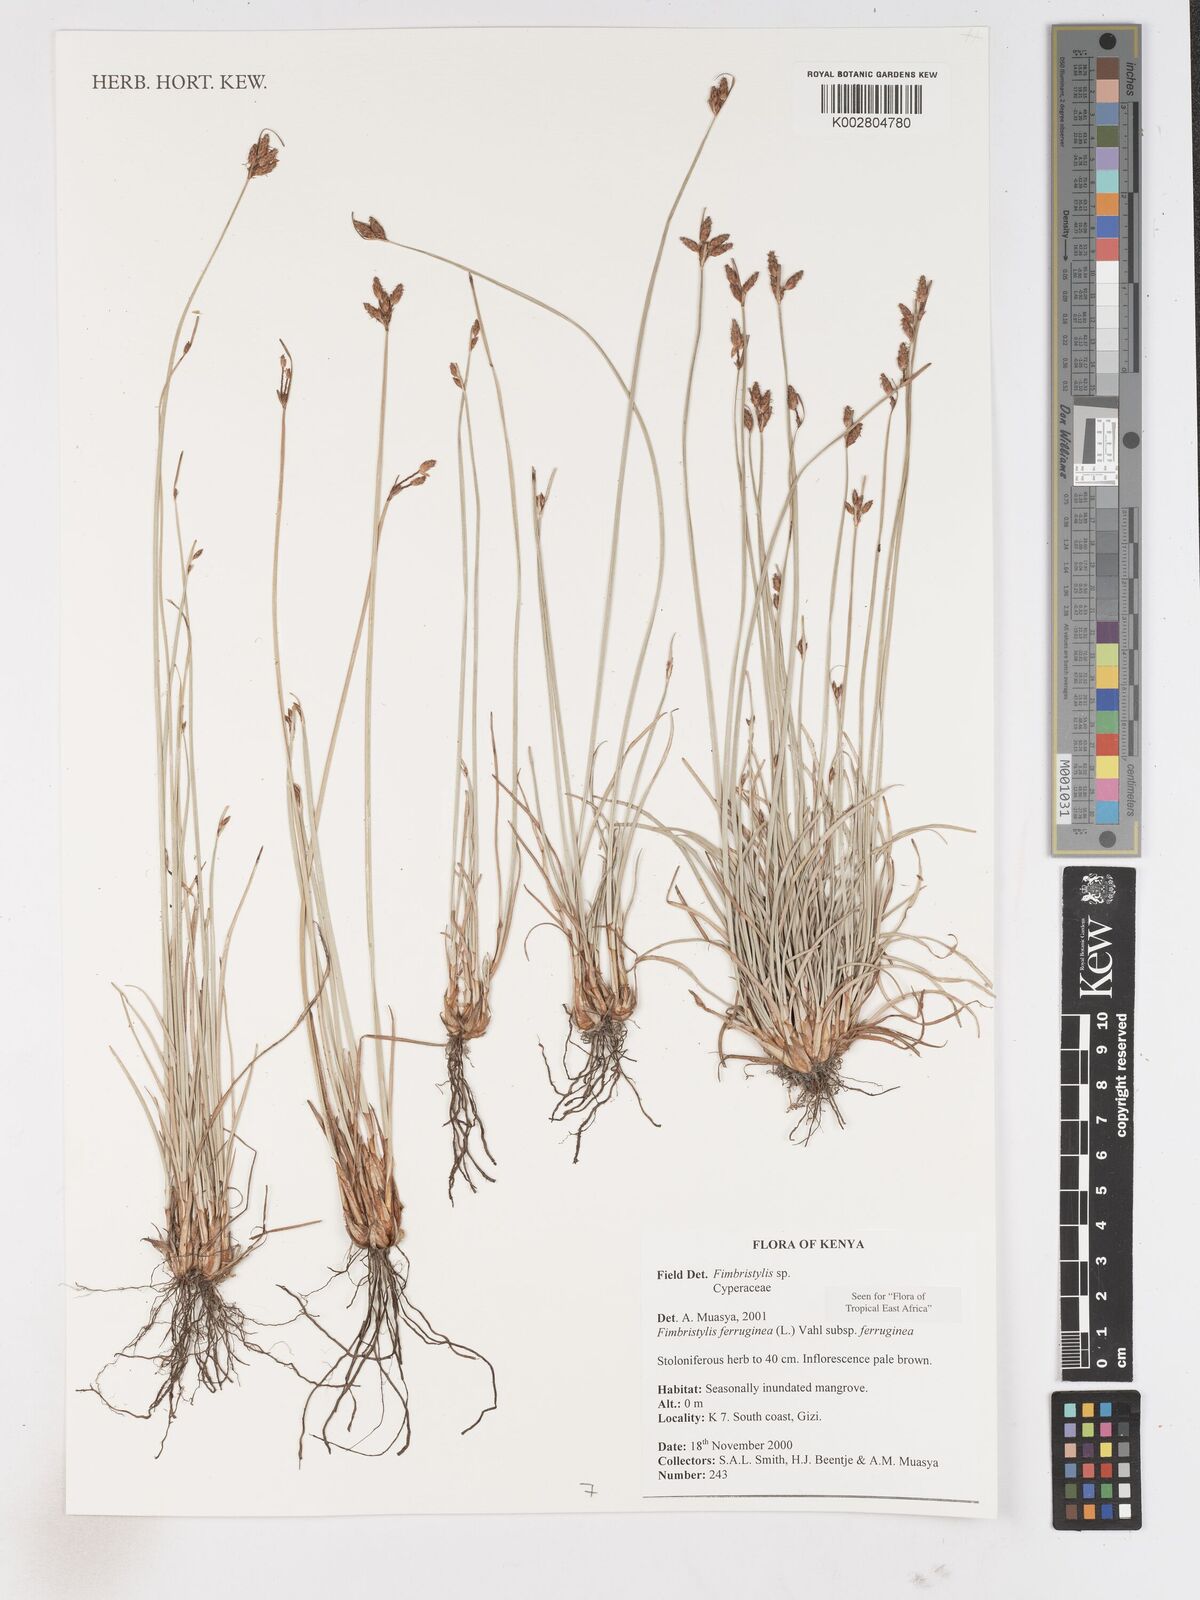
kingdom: Plantae
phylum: Tracheophyta
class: Liliopsida
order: Poales
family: Cyperaceae
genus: Fimbristylis
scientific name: Fimbristylis ferruginea
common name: West indian fimbry
